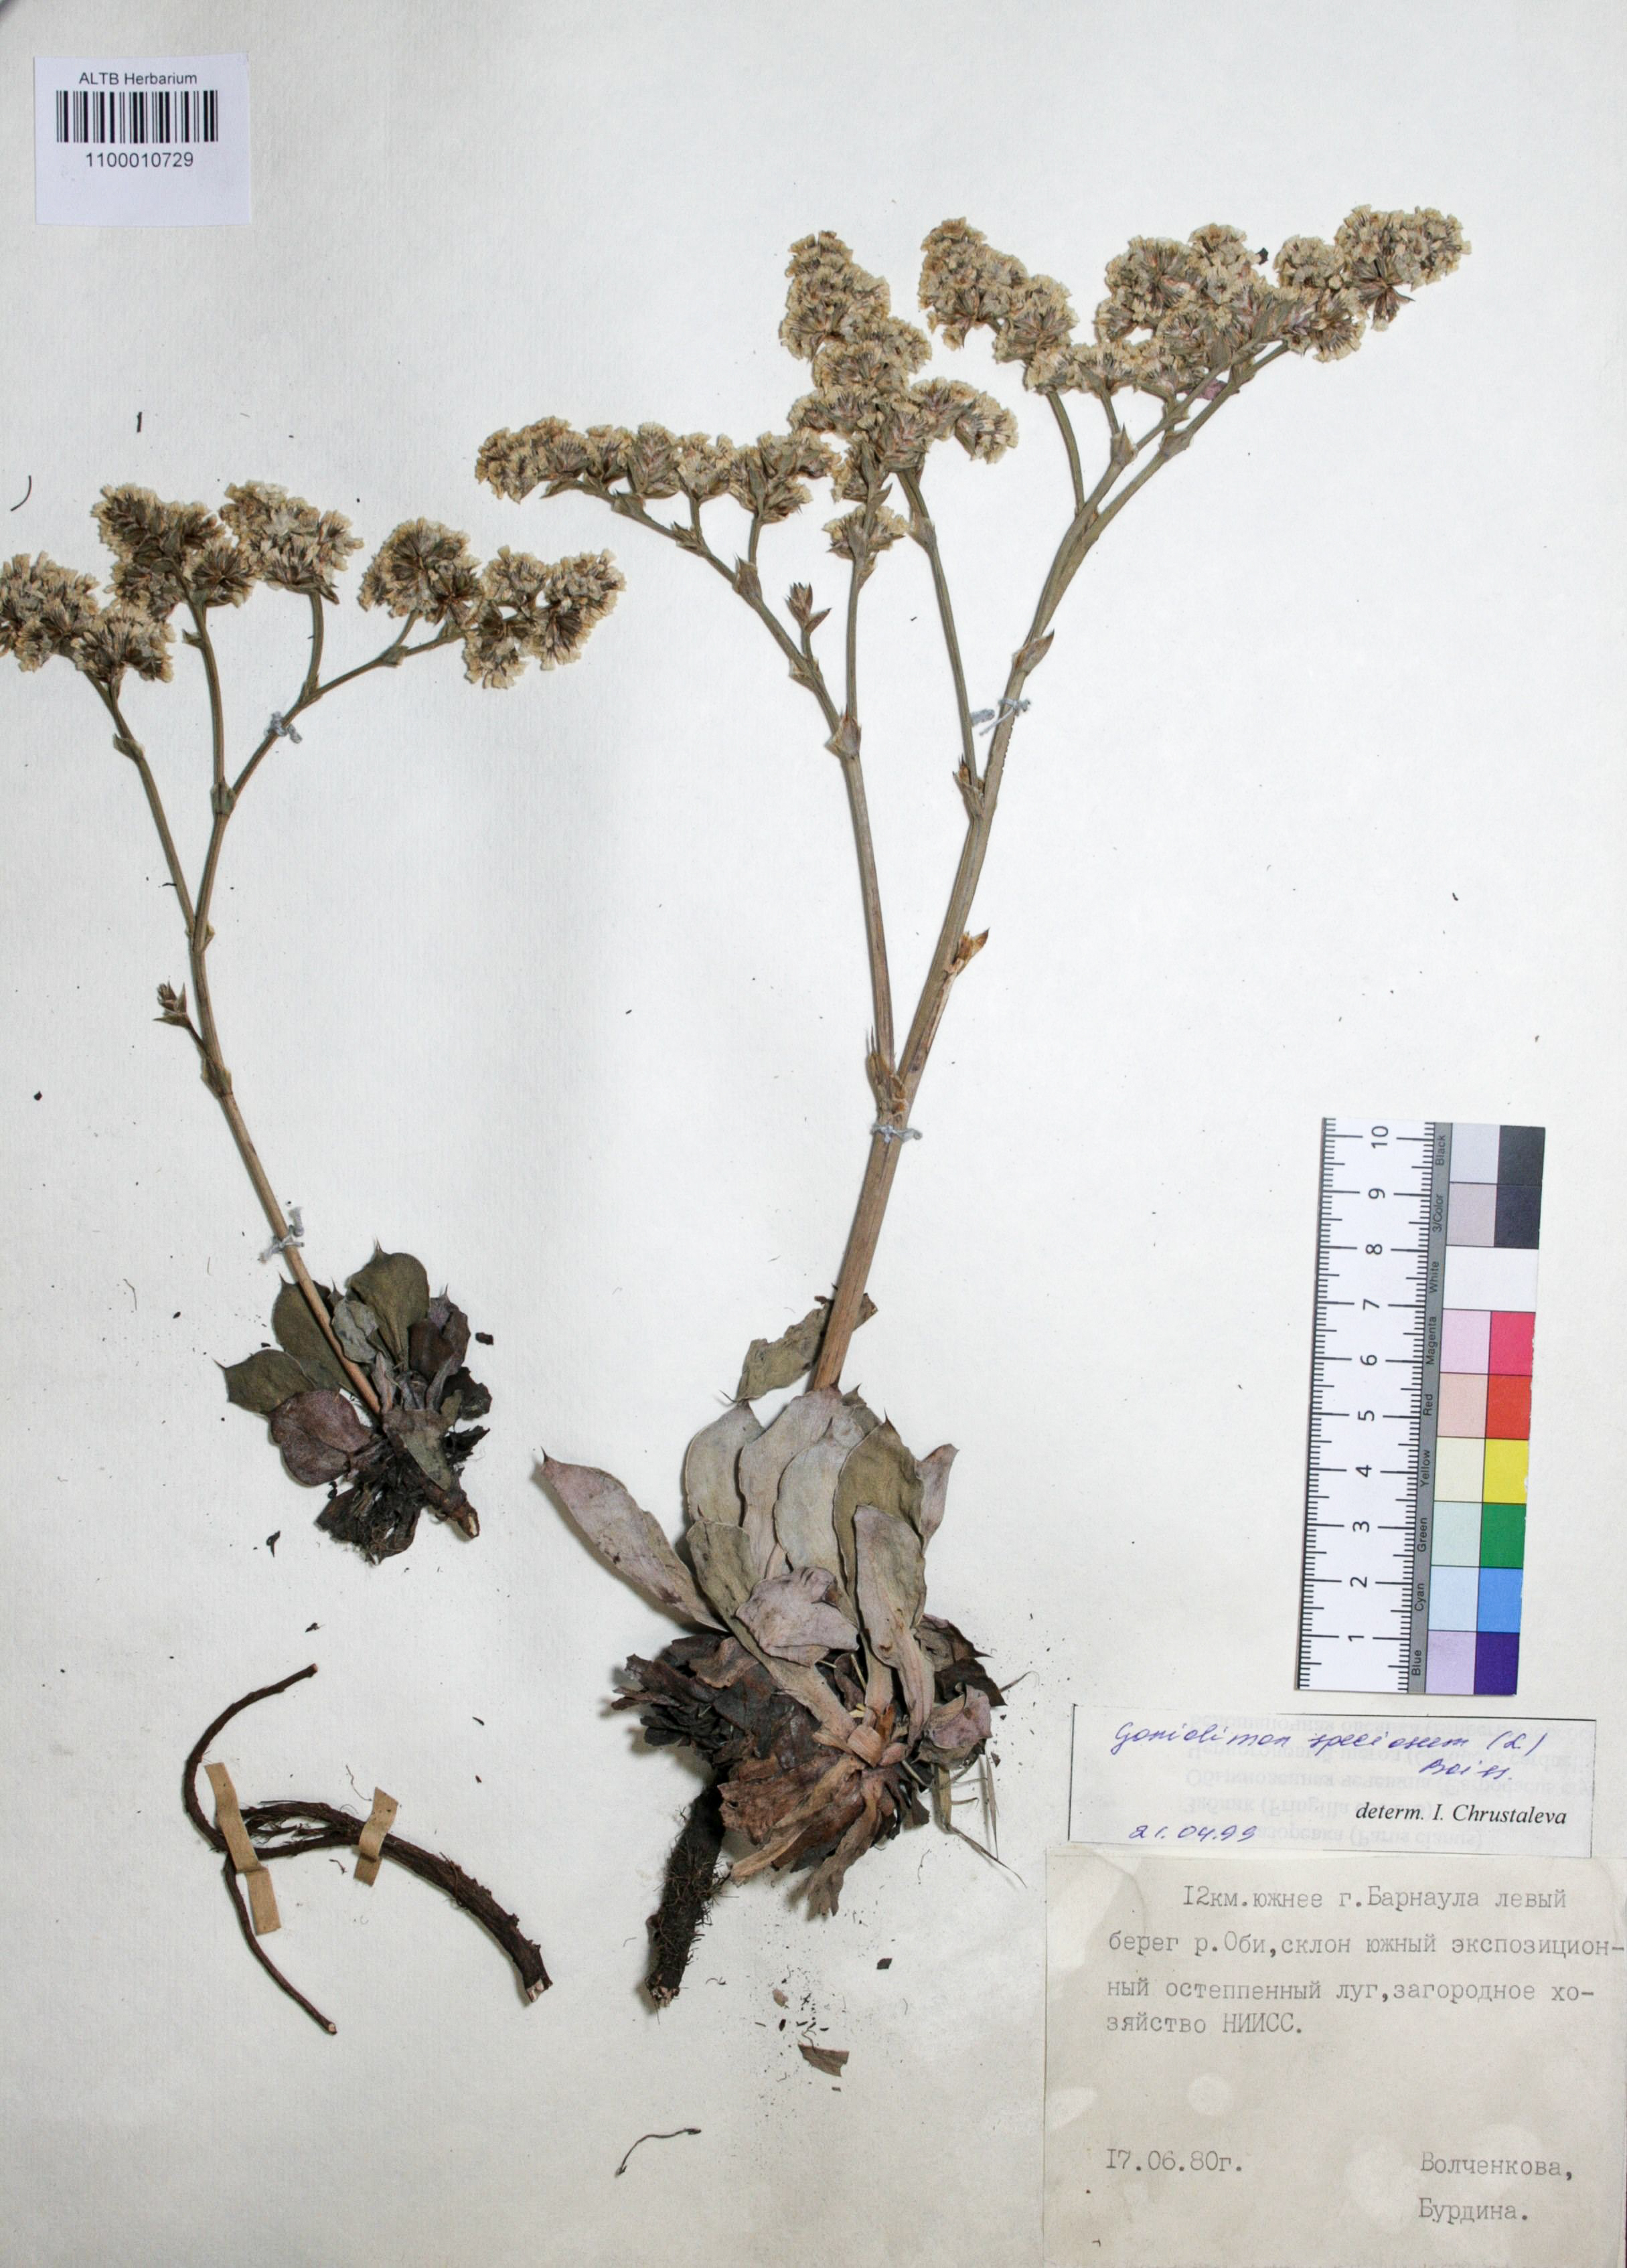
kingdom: Plantae
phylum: Tracheophyta
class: Magnoliopsida
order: Caryophyllales
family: Plumbaginaceae
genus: Goniolimon
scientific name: Goniolimon speciosum
